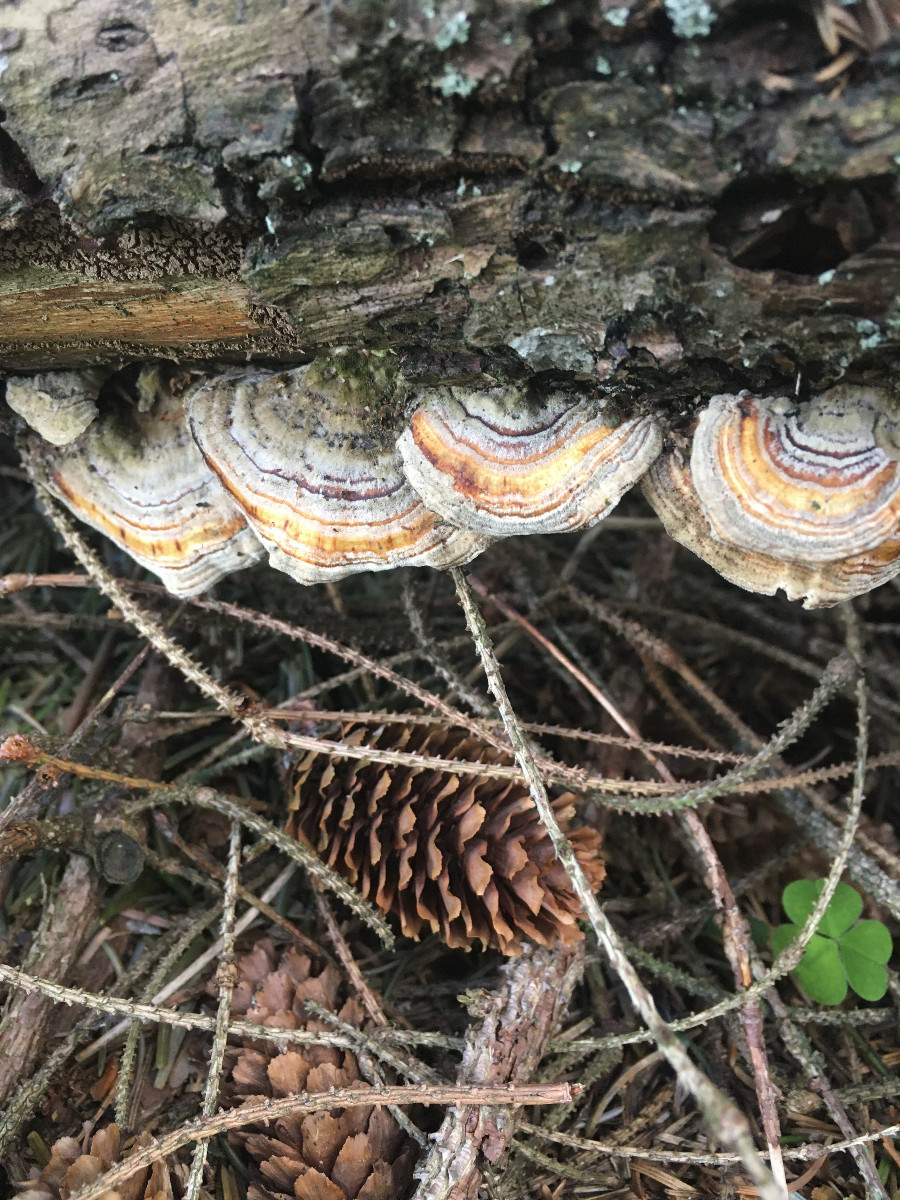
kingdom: Fungi
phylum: Basidiomycota
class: Agaricomycetes
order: Russulales
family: Stereaceae
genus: Stereum
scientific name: Stereum hirsutum
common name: håret lædersvamp
